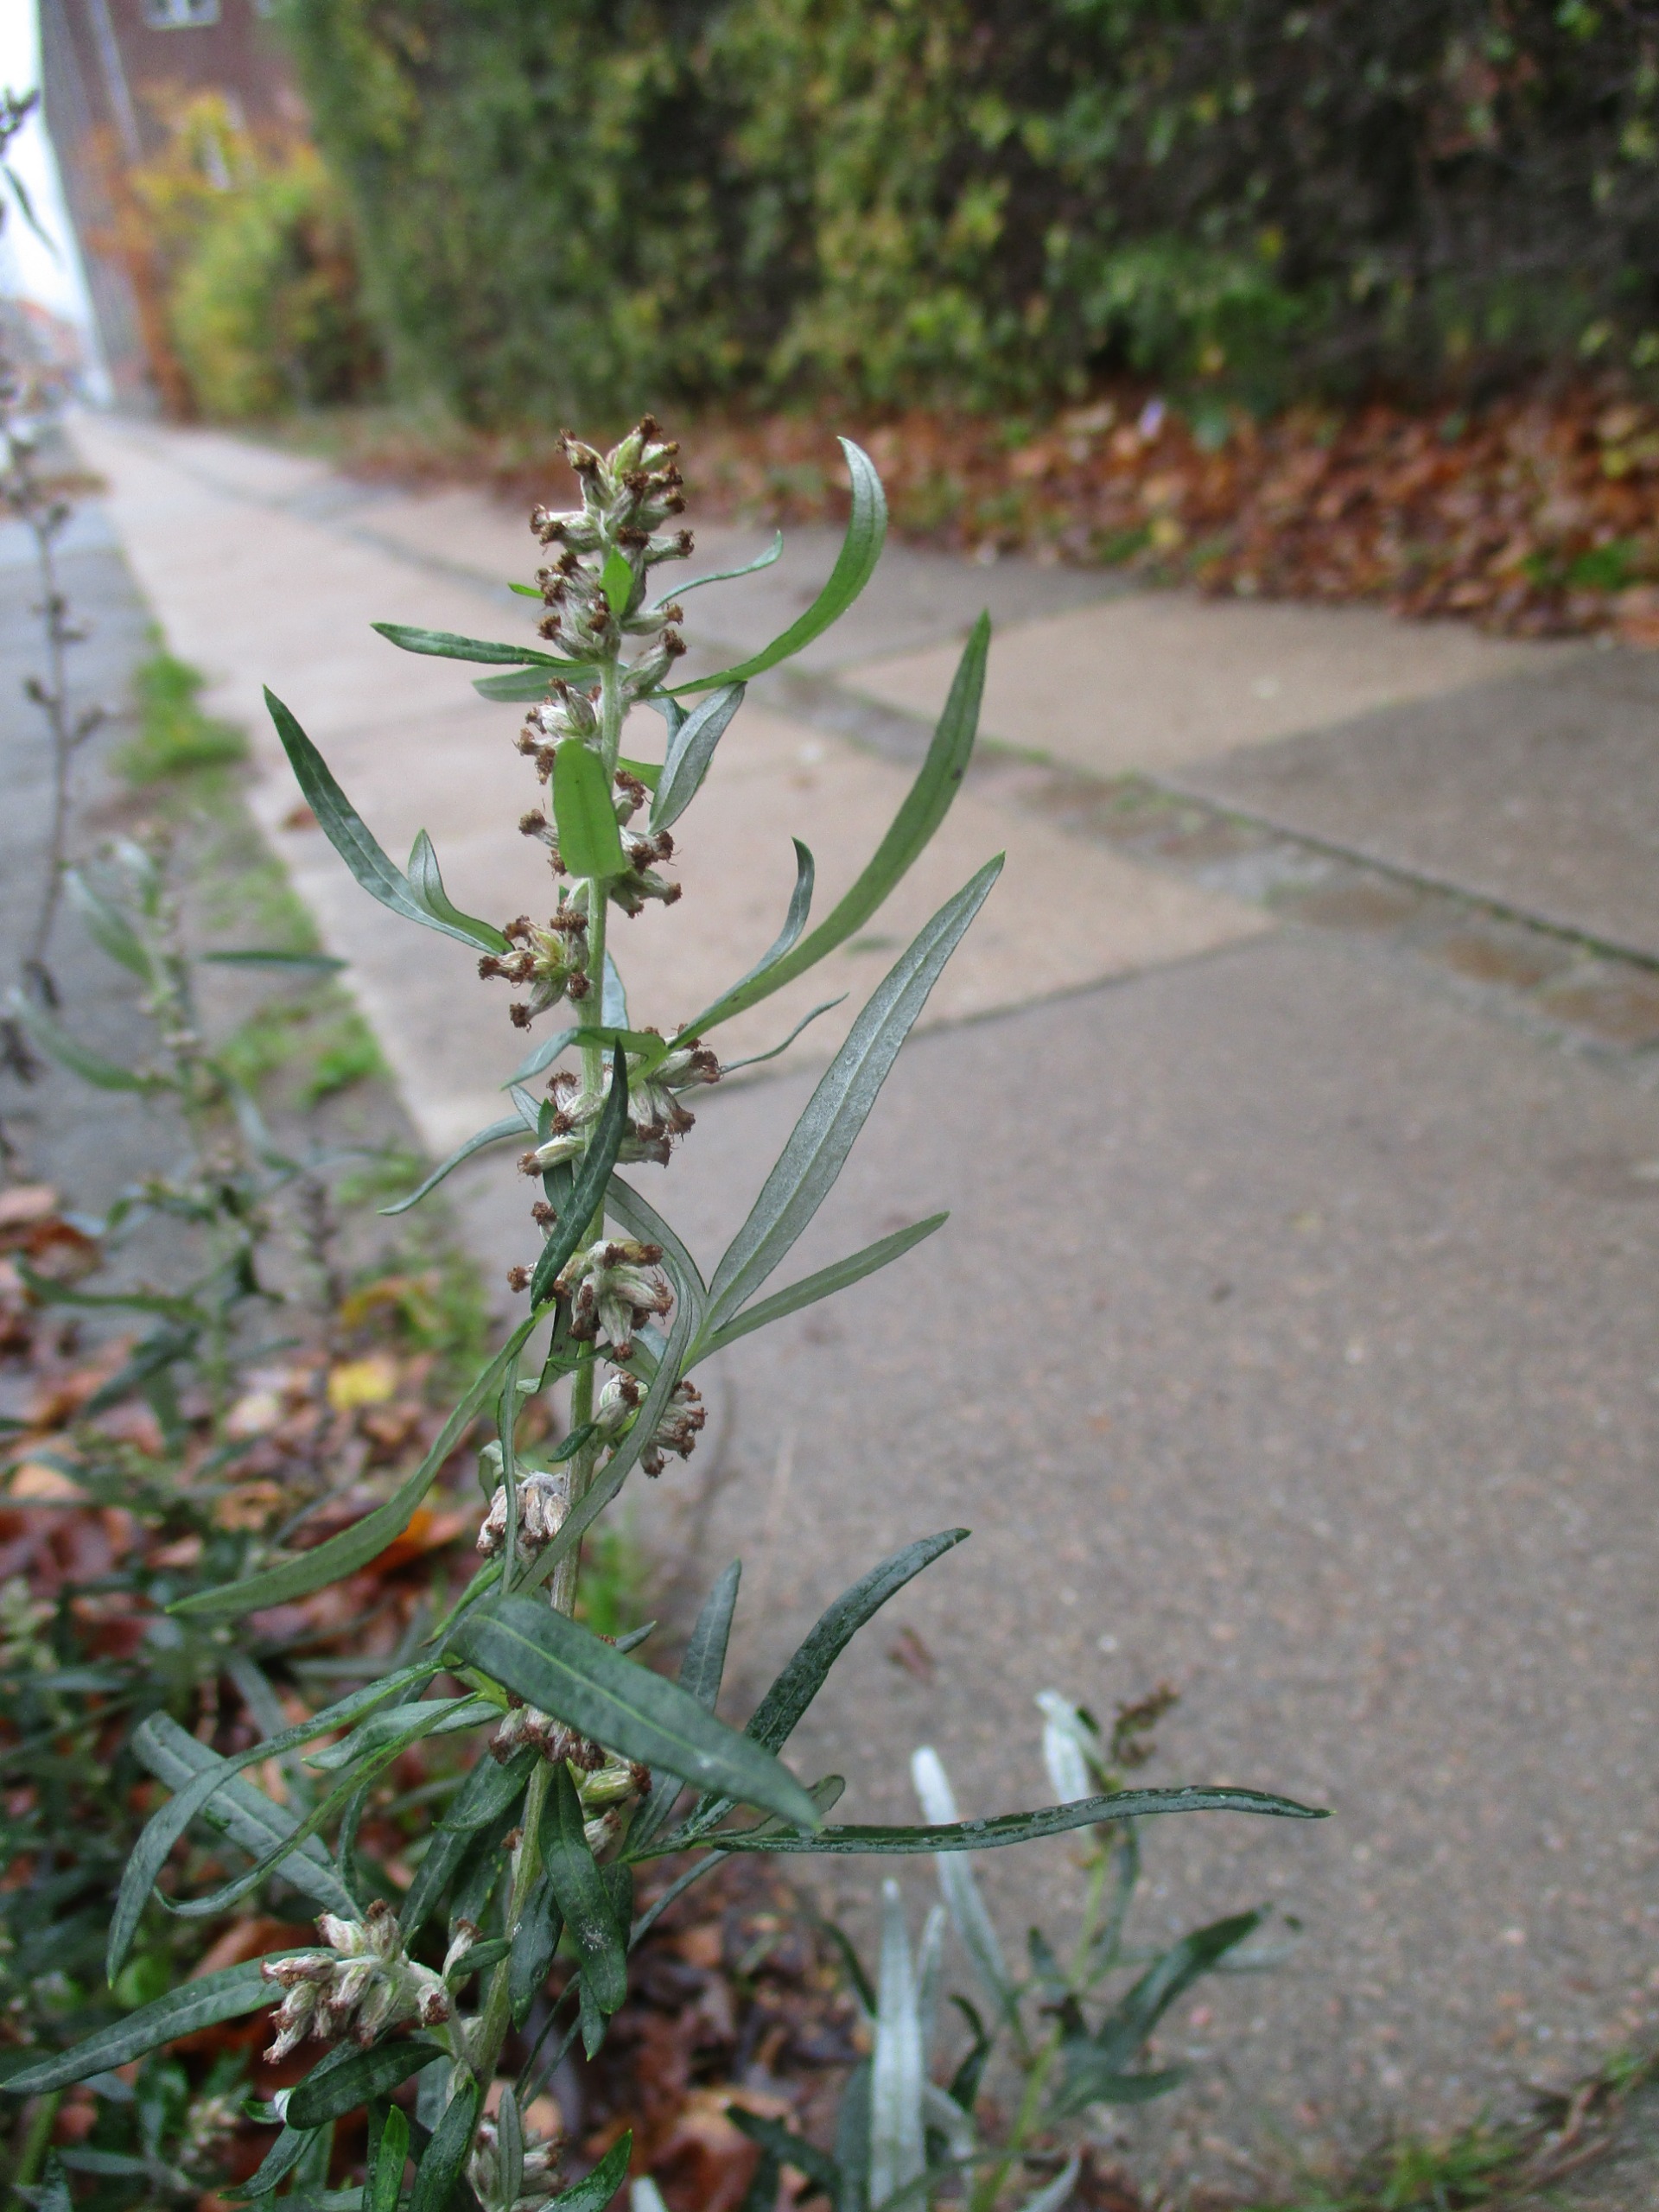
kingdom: Plantae
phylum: Tracheophyta
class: Magnoliopsida
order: Asterales
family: Asteraceae
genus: Artemisia
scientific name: Artemisia vulgaris
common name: Grå-bynke
